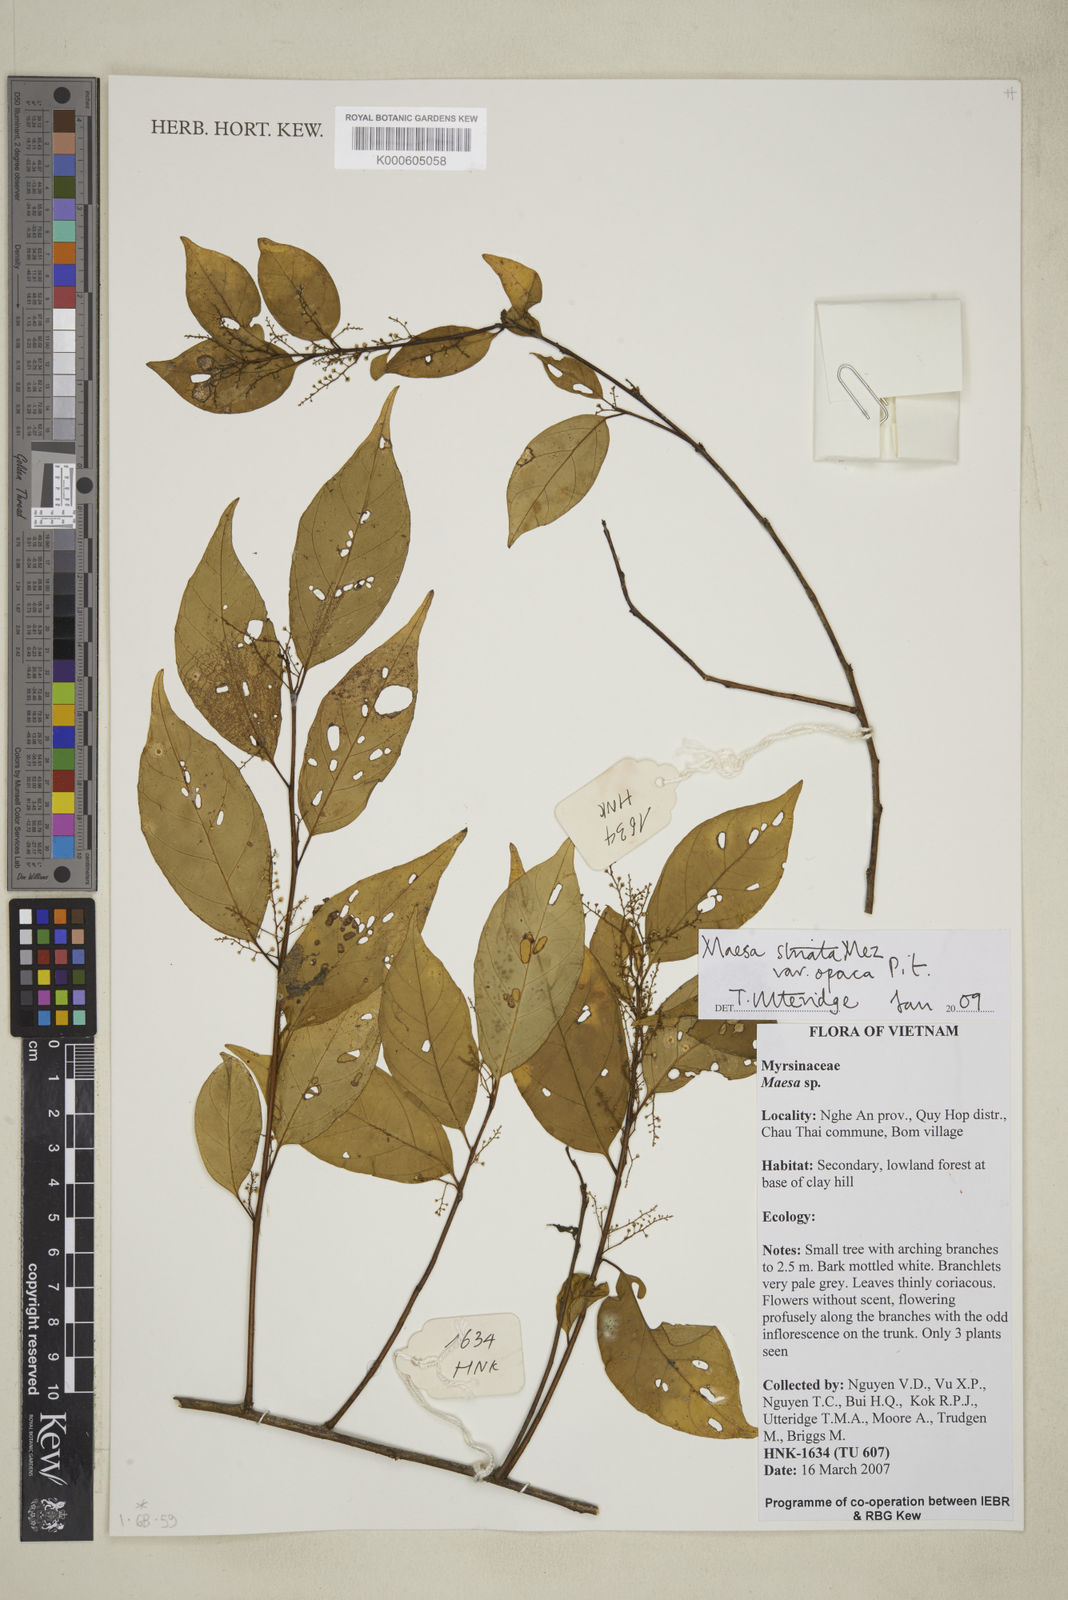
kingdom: Plantae
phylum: Tracheophyta
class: Magnoliopsida
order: Ericales
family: Primulaceae
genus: Maesa
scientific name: Maesa striata
